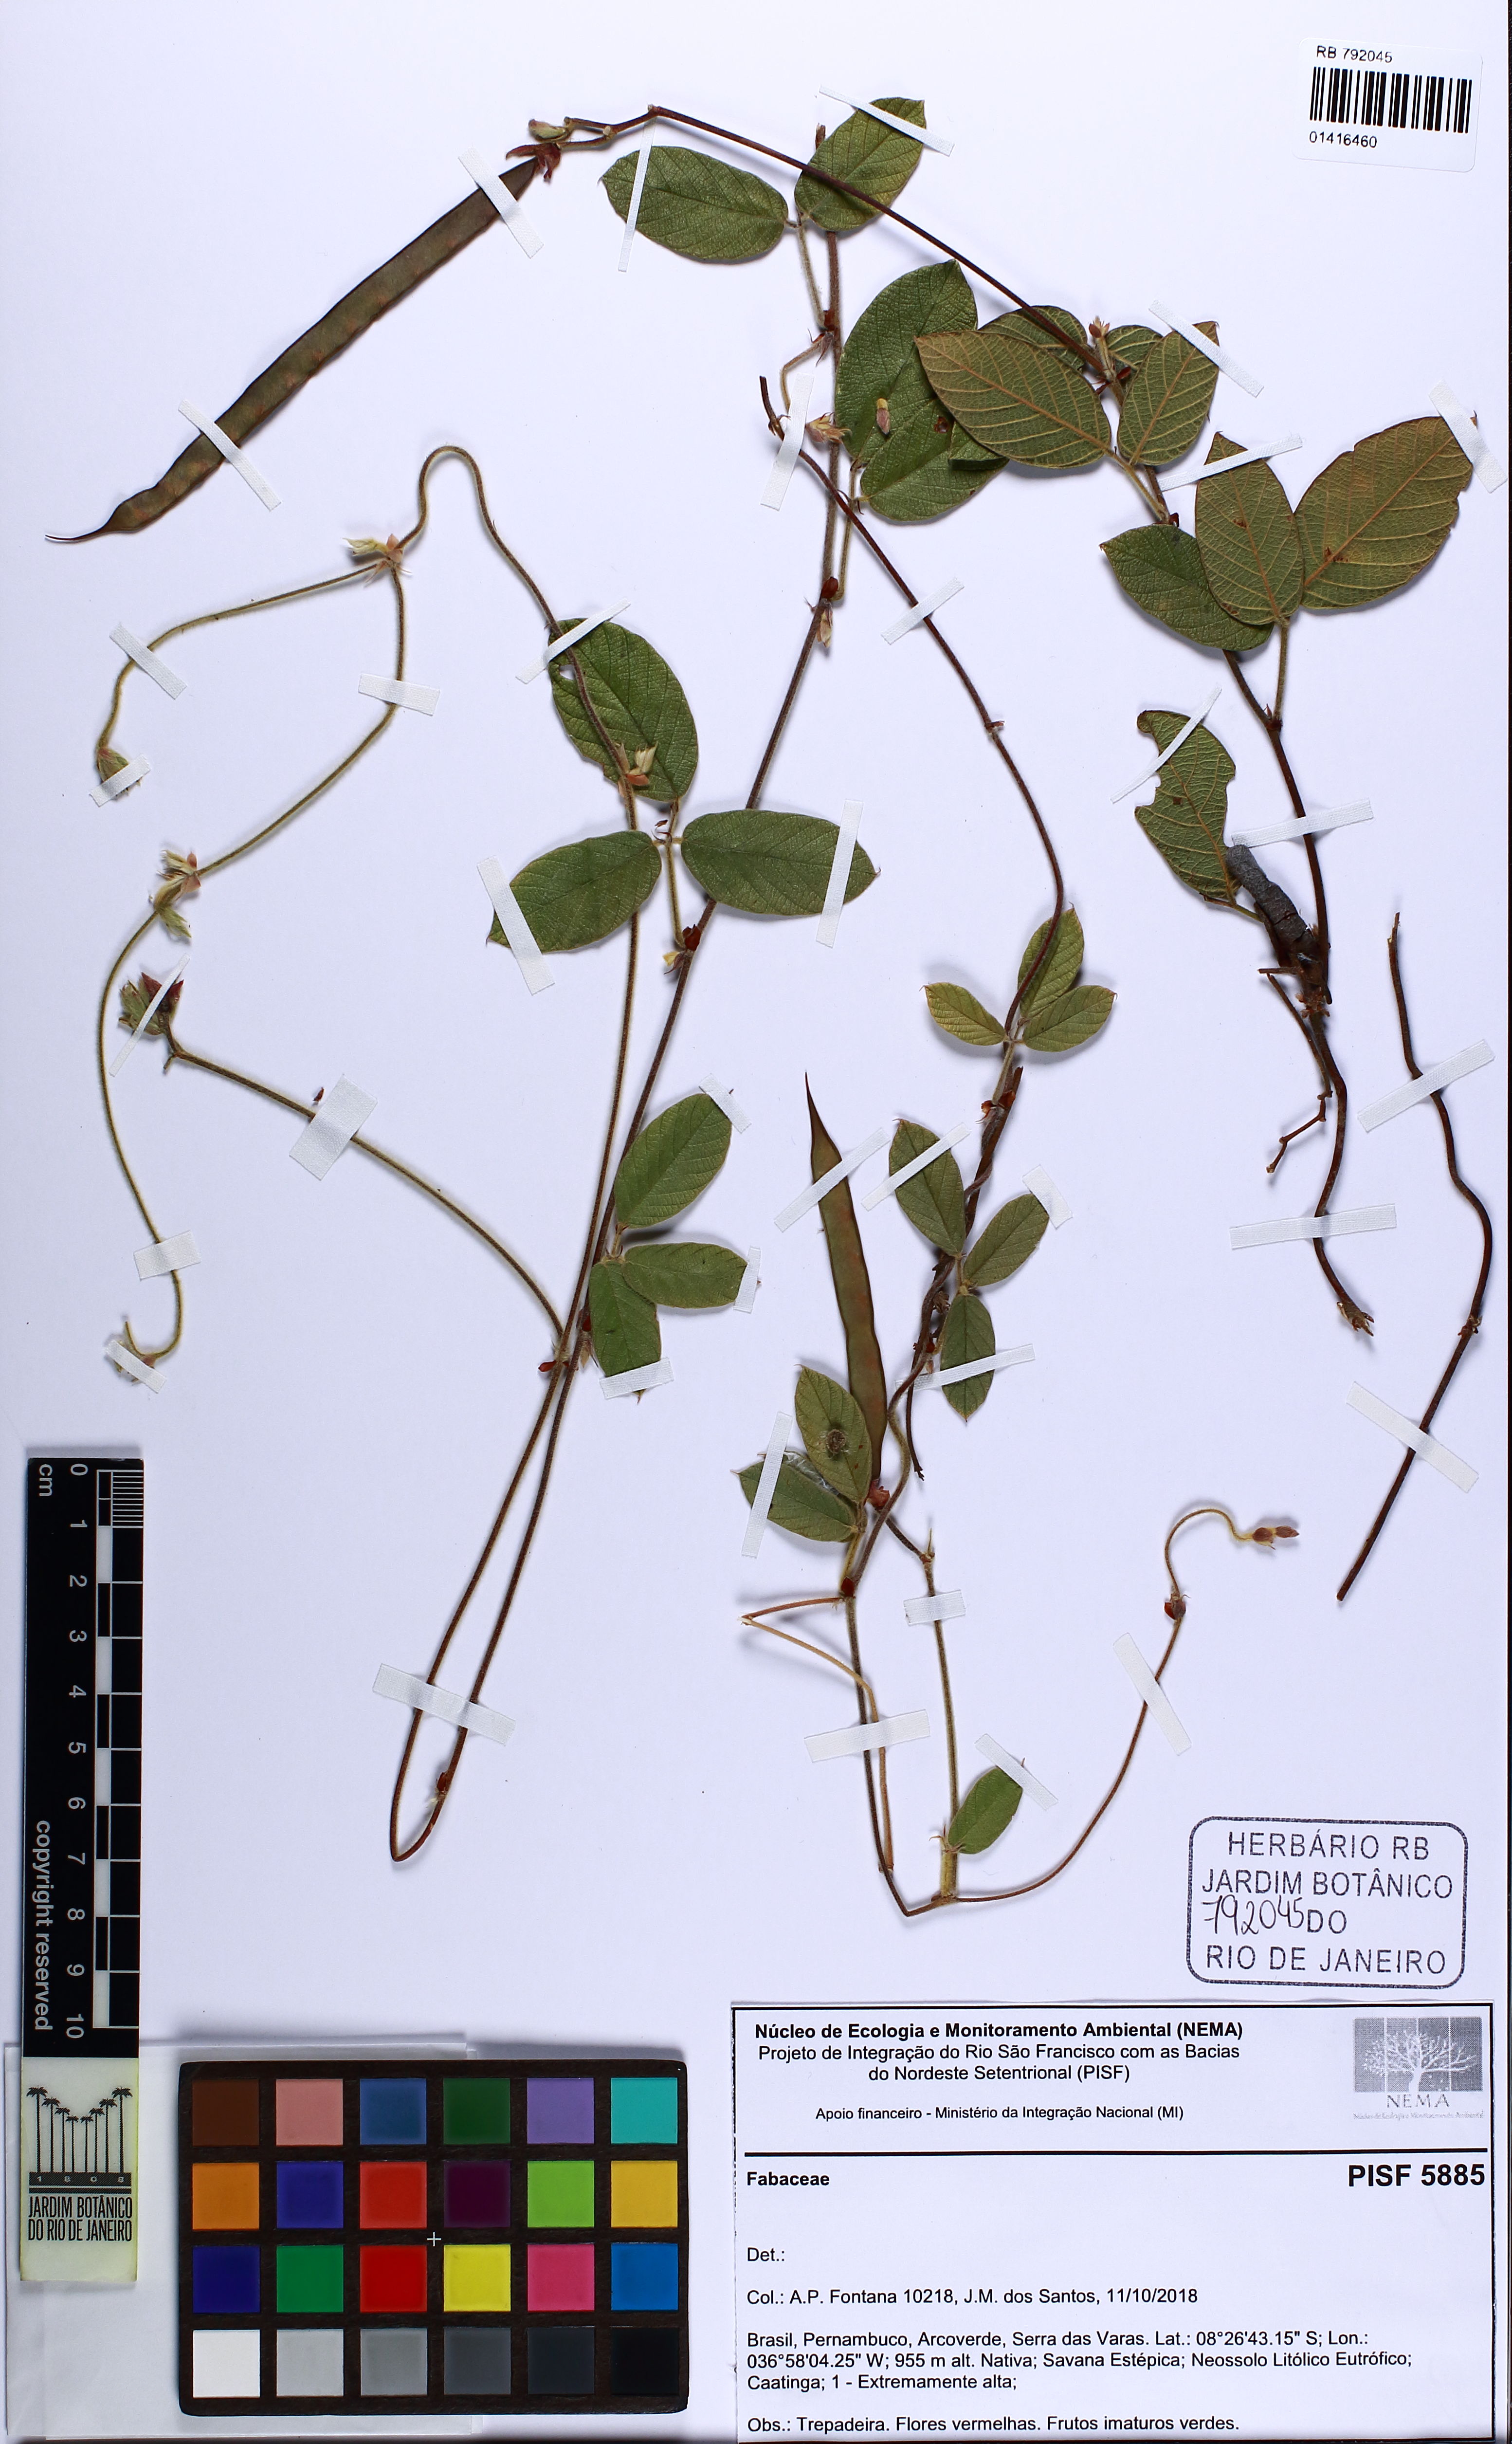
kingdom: Plantae
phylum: Tracheophyta
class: Magnoliopsida
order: Fabales
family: Fabaceae
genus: Periandra
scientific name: Periandra
